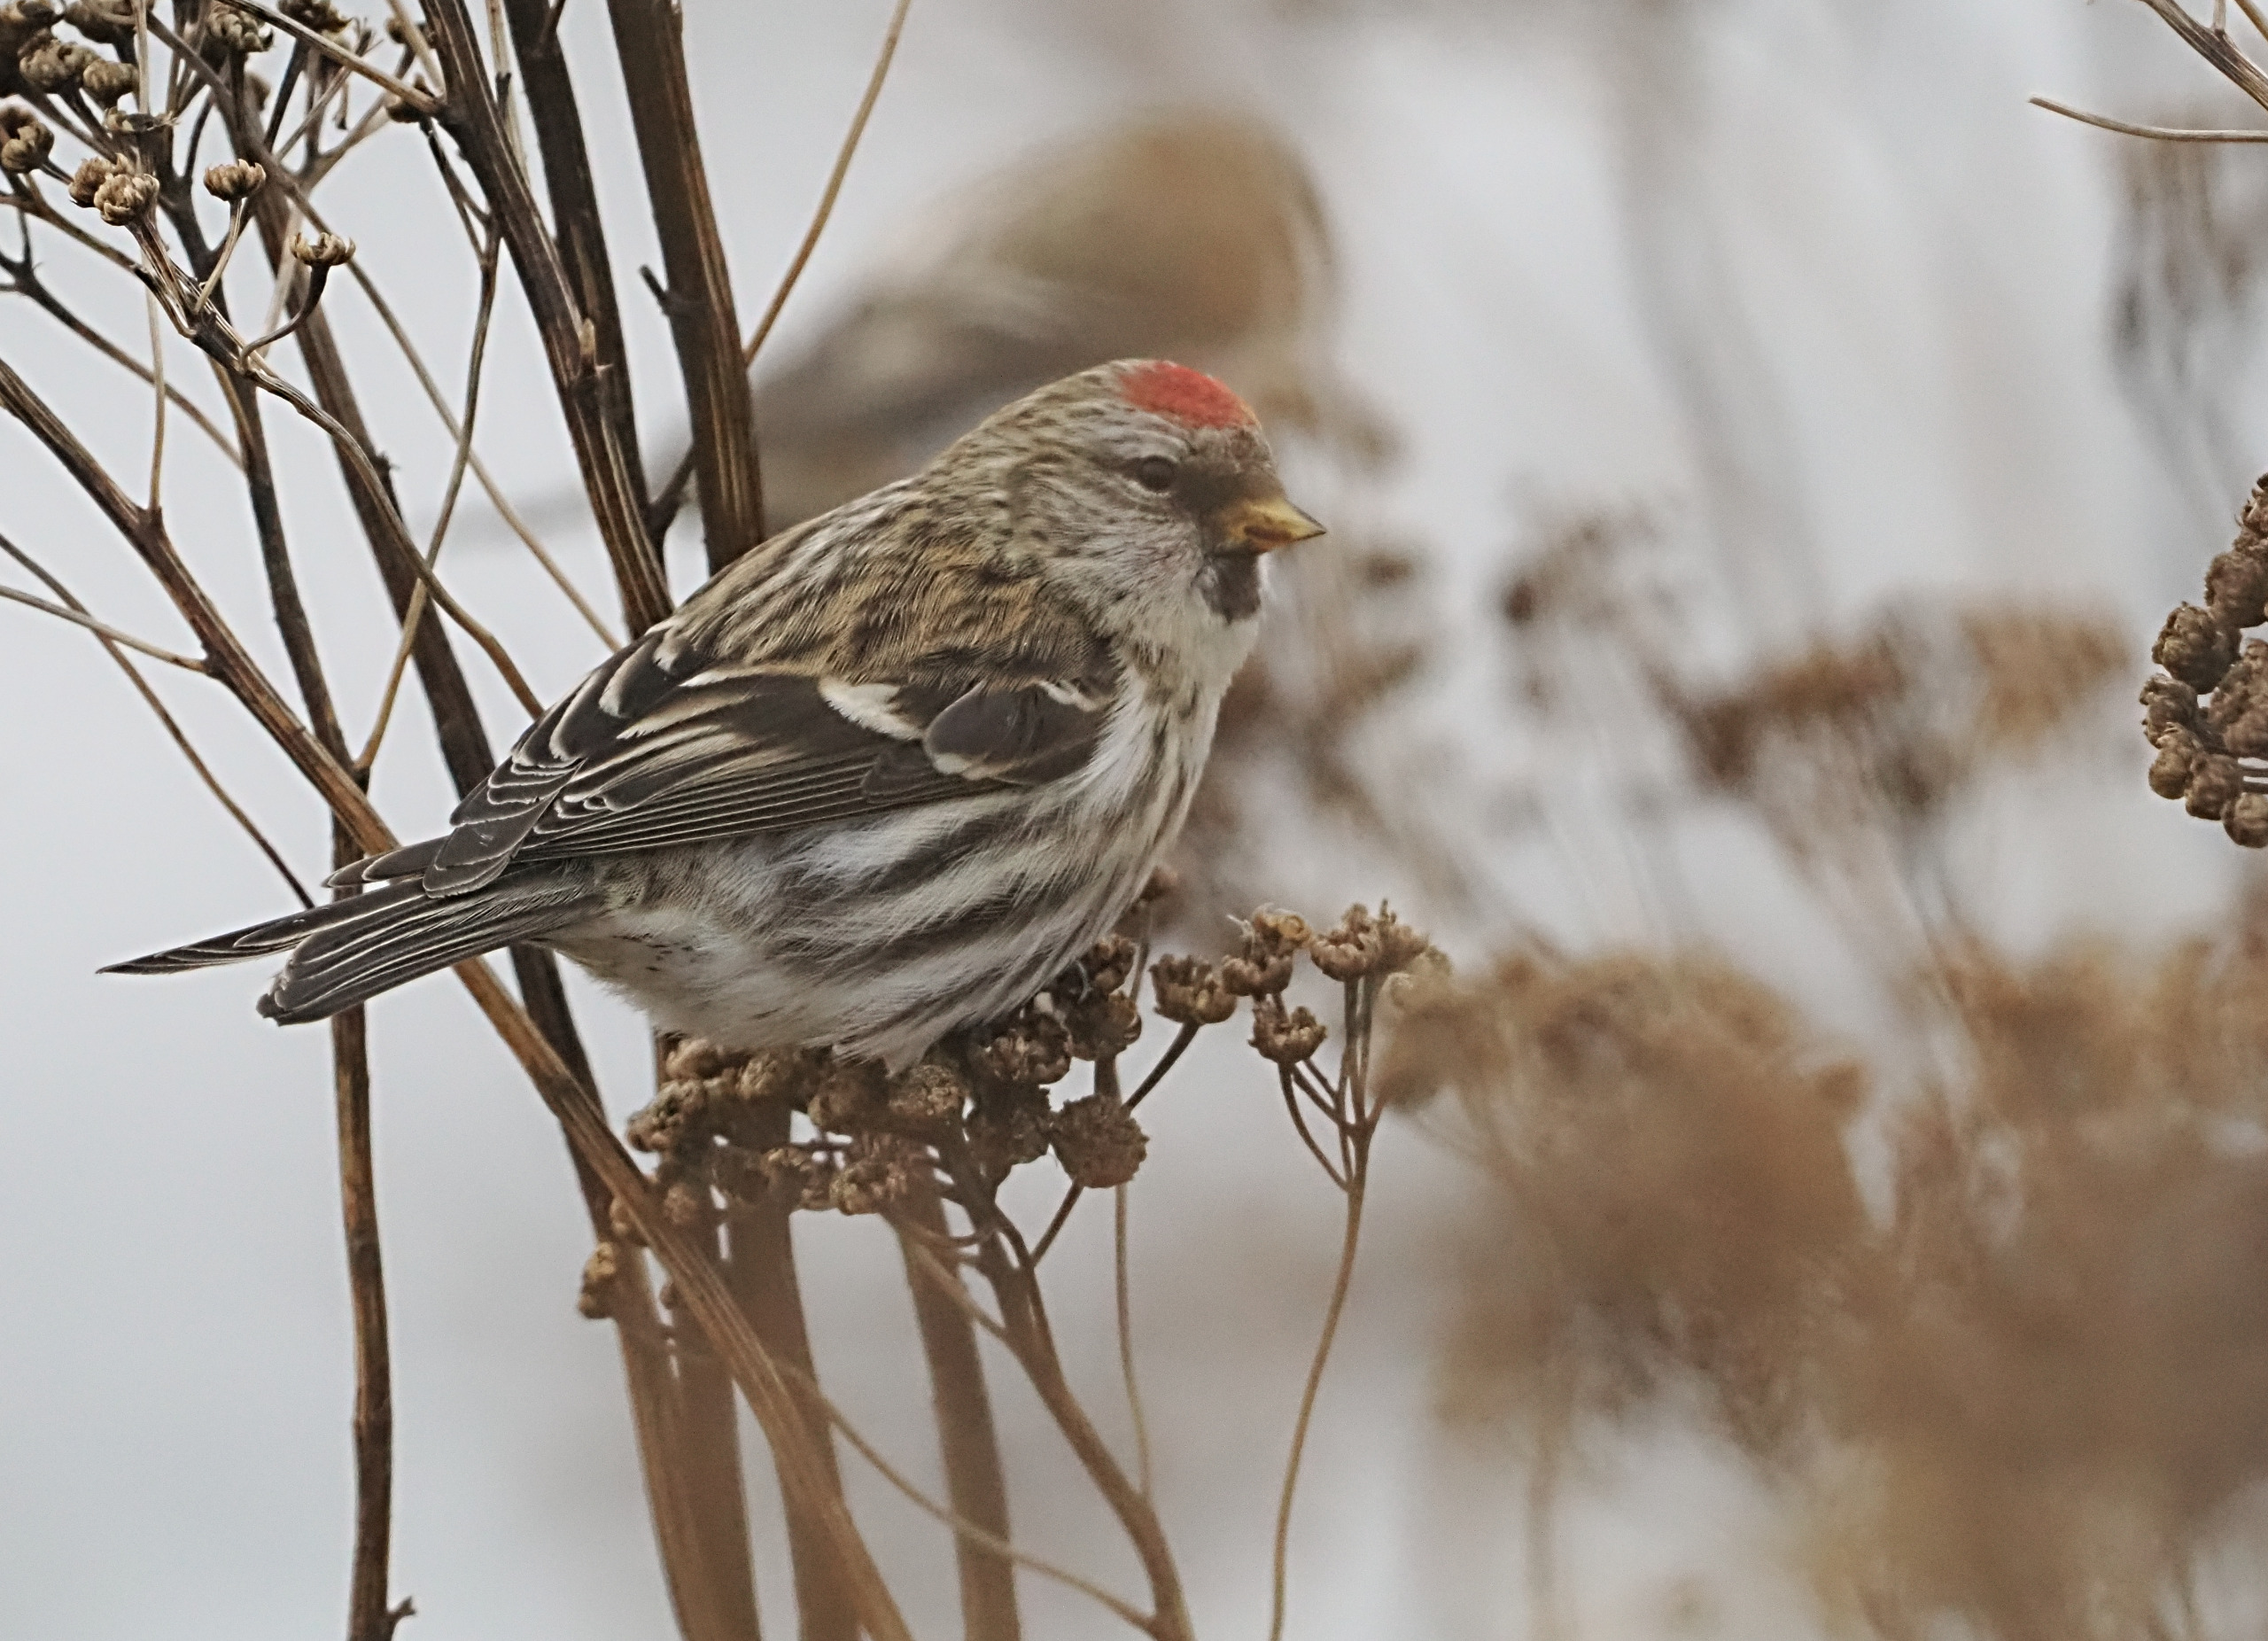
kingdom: Animalia
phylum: Chordata
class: Aves
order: Passeriformes
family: Fringillidae
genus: Acanthis
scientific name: Acanthis flammea
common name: Nordlig gråsisken
